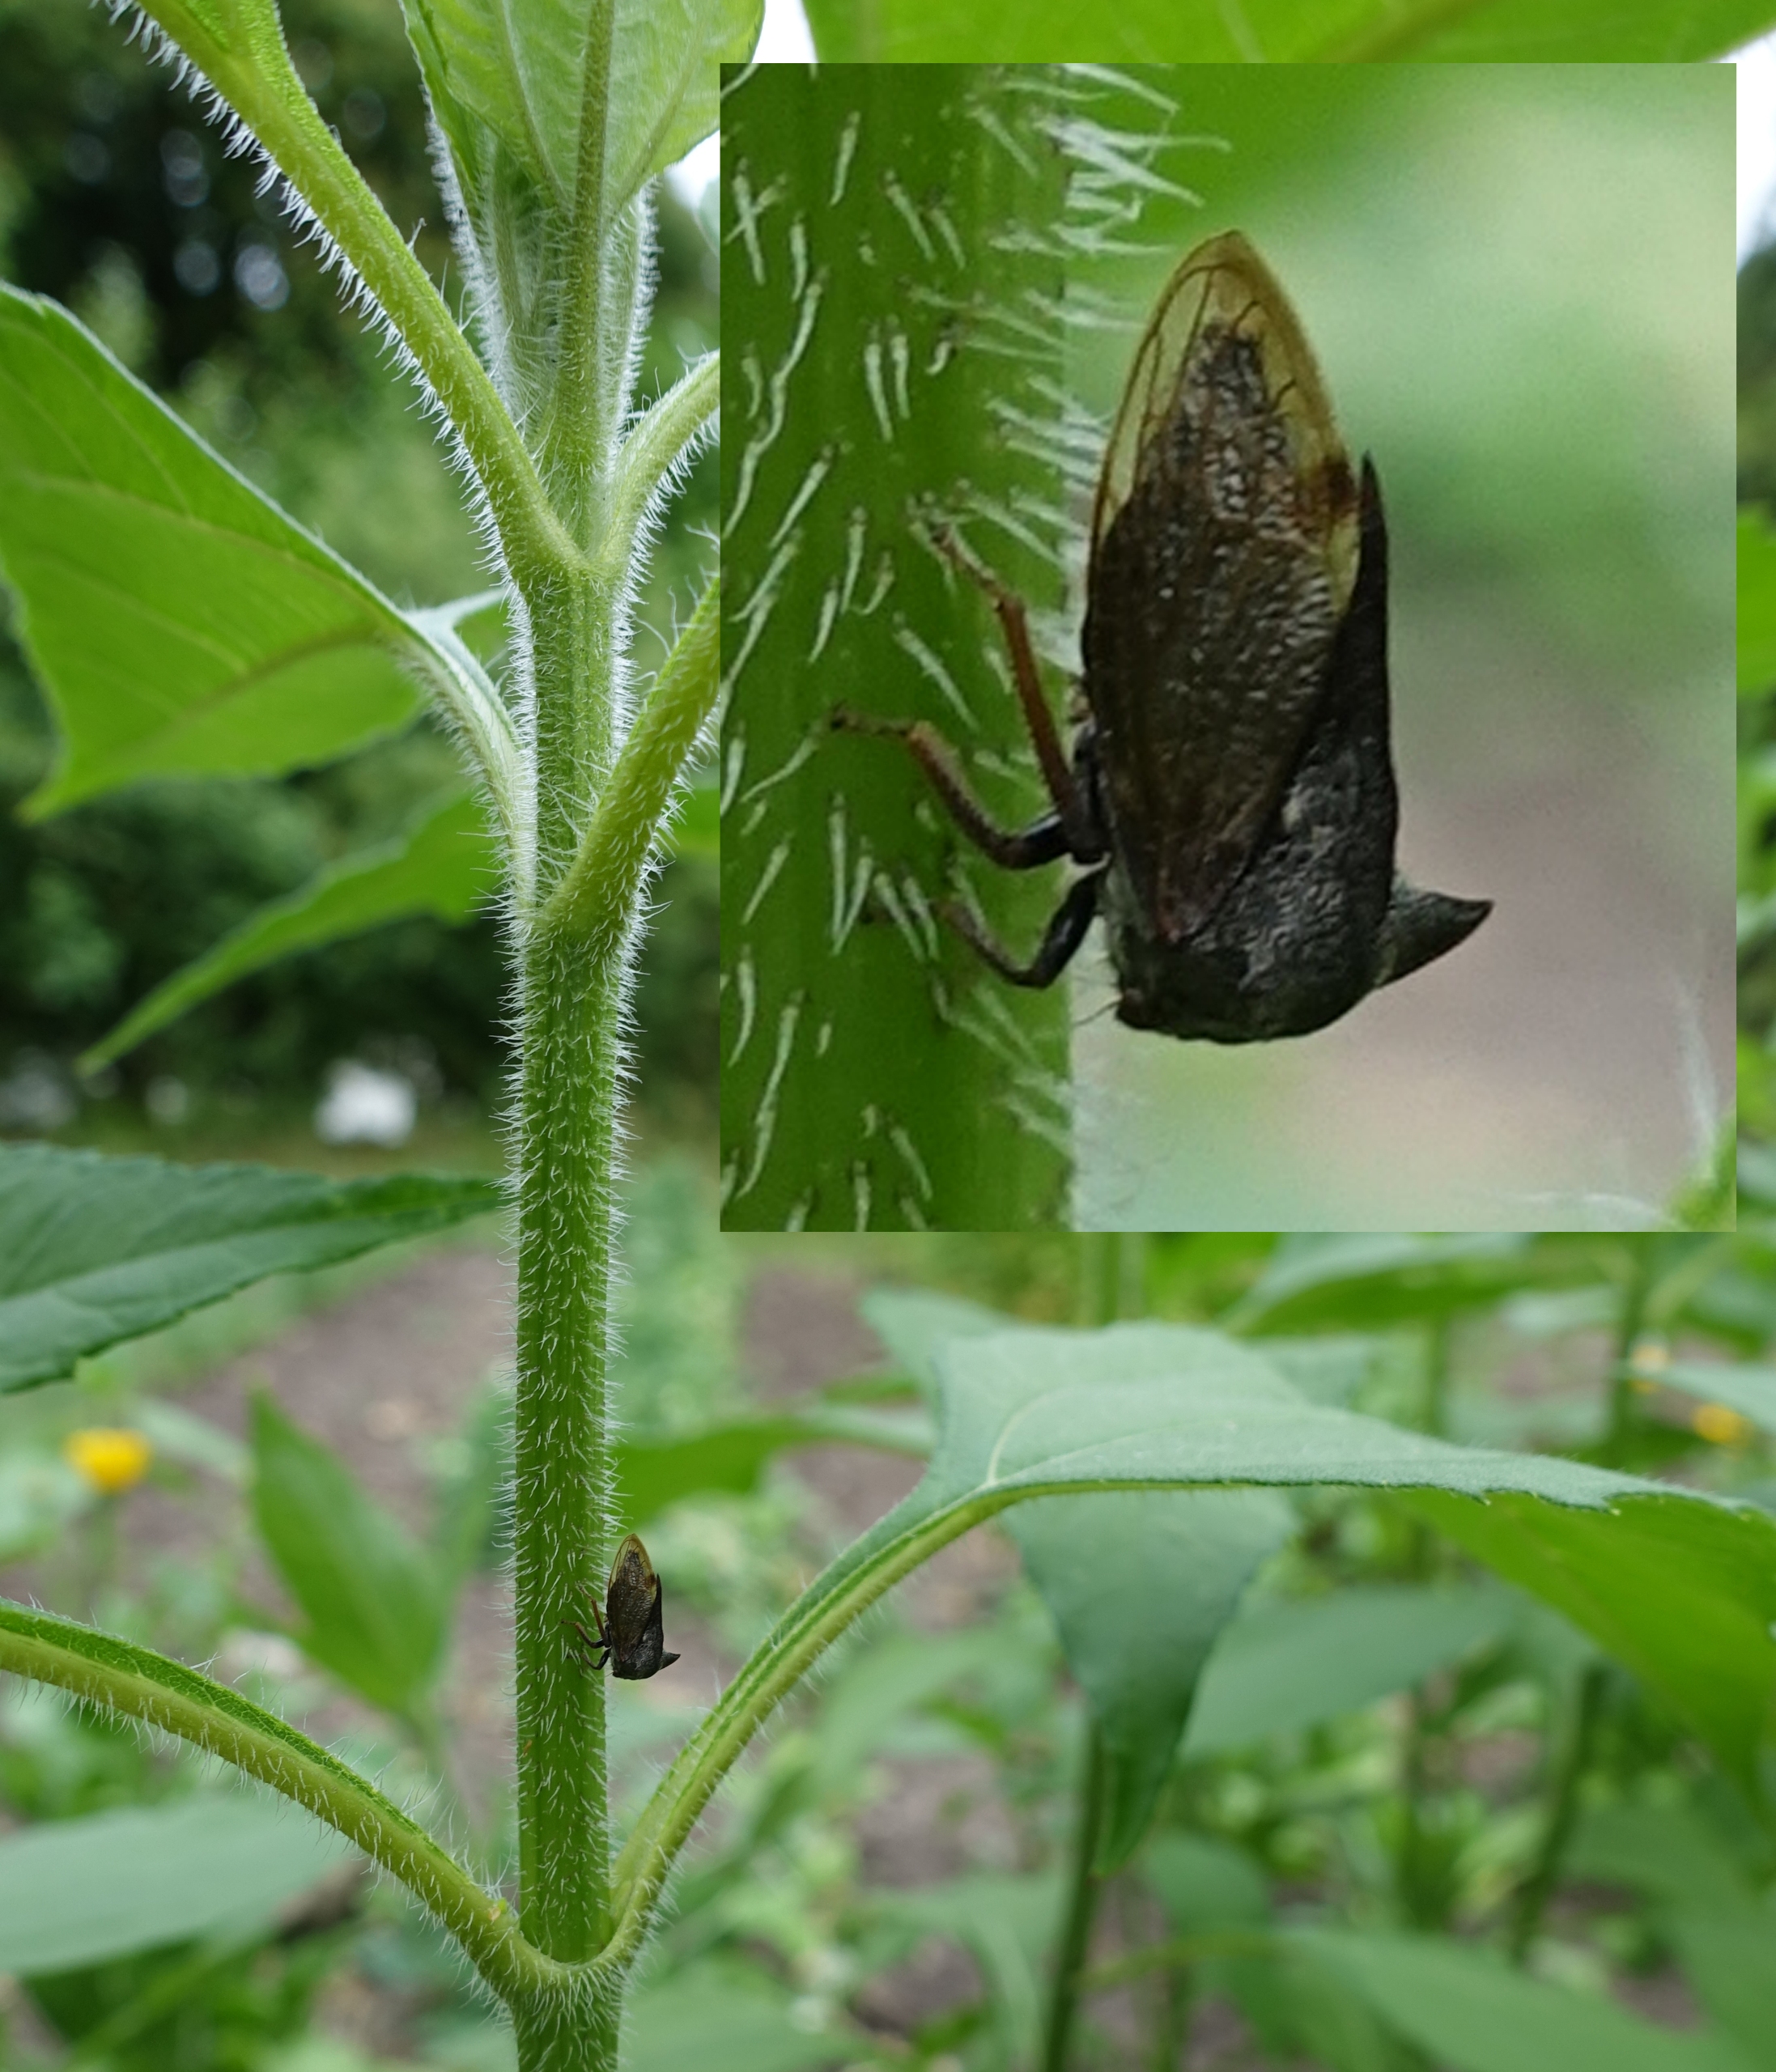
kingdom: Animalia
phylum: Arthropoda
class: Insecta
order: Hemiptera
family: Membracidae
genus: Centrotus
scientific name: Centrotus cornuta
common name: Horncikade
